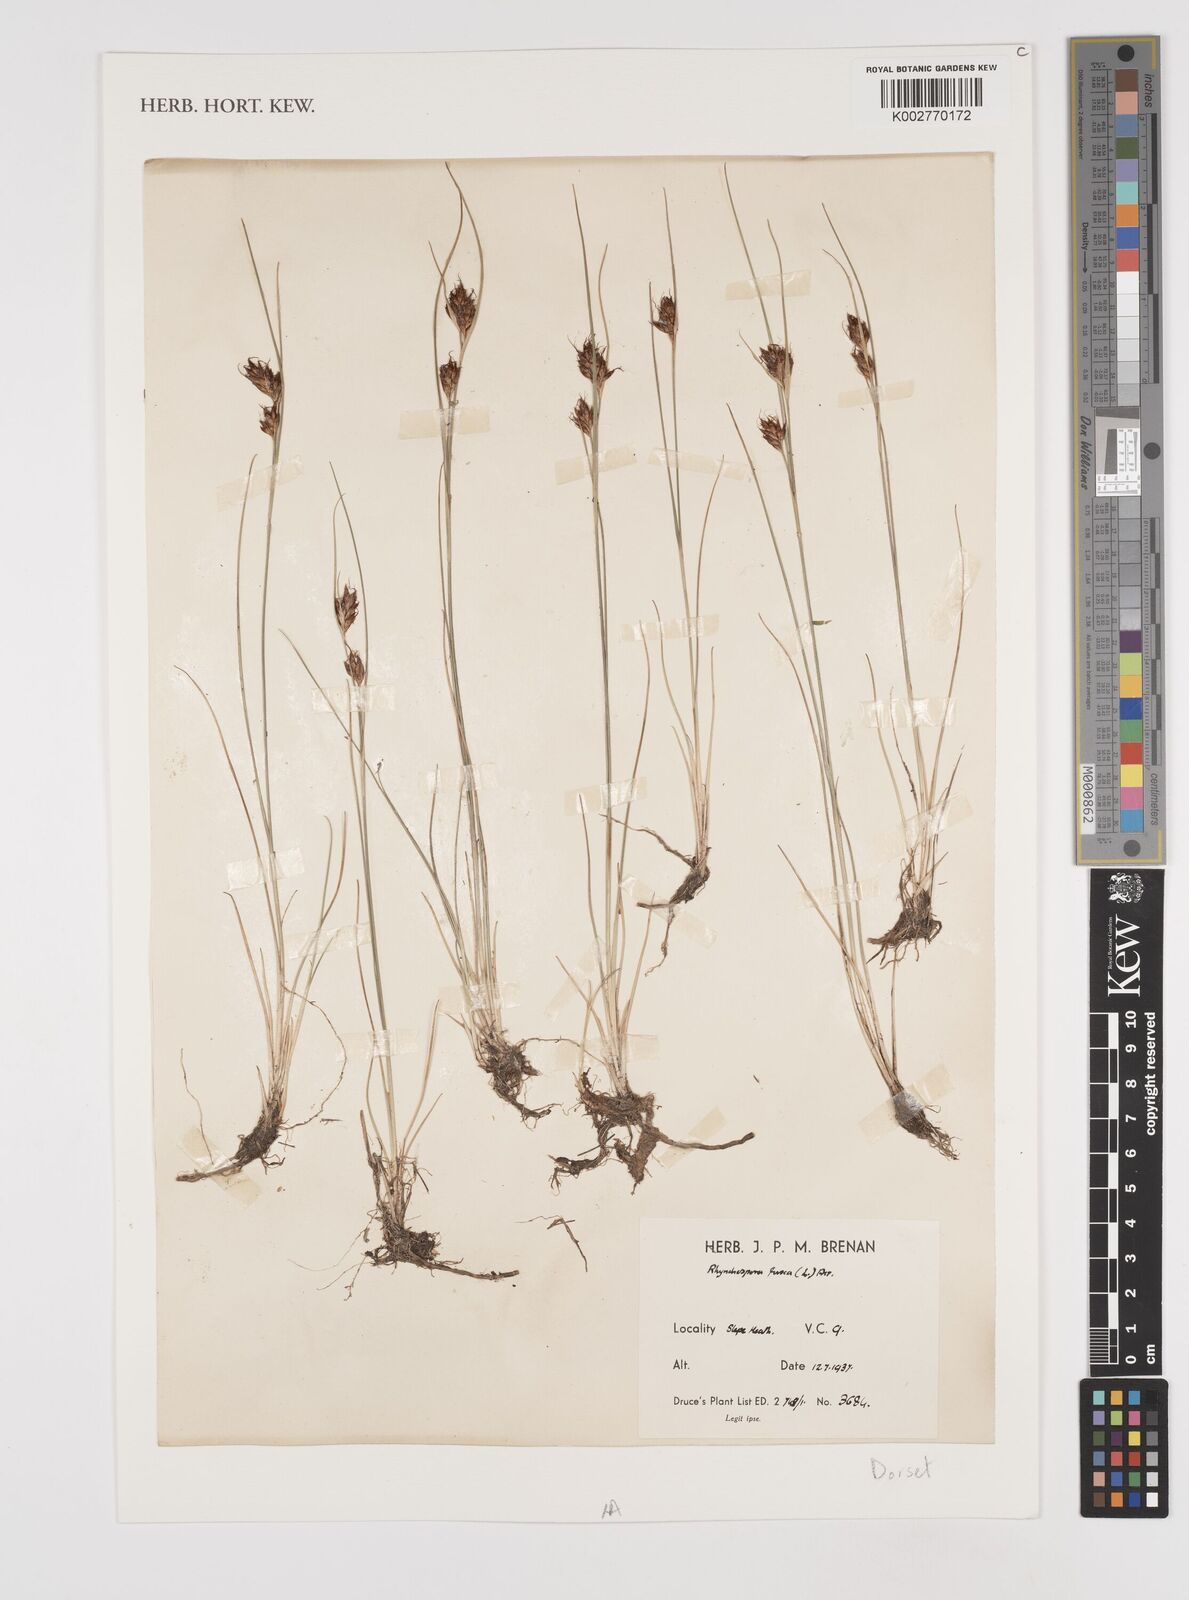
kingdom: Plantae
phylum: Tracheophyta
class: Liliopsida
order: Poales
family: Cyperaceae
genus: Rhynchospora
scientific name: Rhynchospora fusca
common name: Brown beak-sedge
